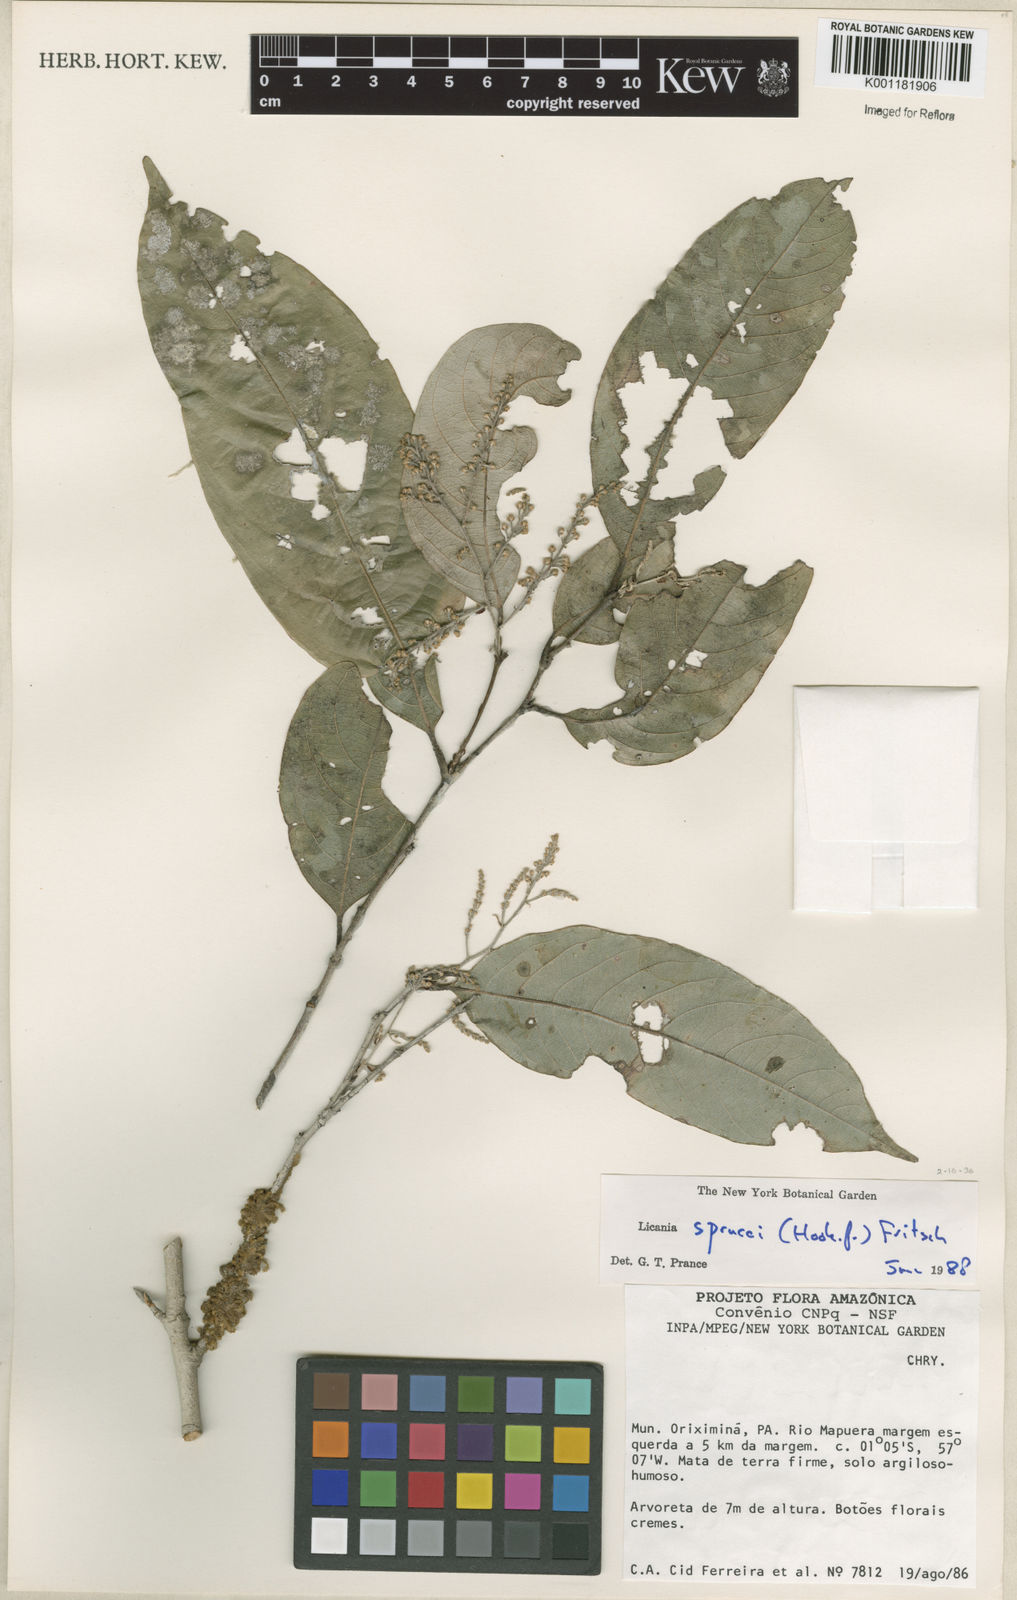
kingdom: Plantae
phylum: Tracheophyta
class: Magnoliopsida
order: Malpighiales
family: Chrysobalanaceae
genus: Leptobalanus
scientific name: Leptobalanus sprucei
